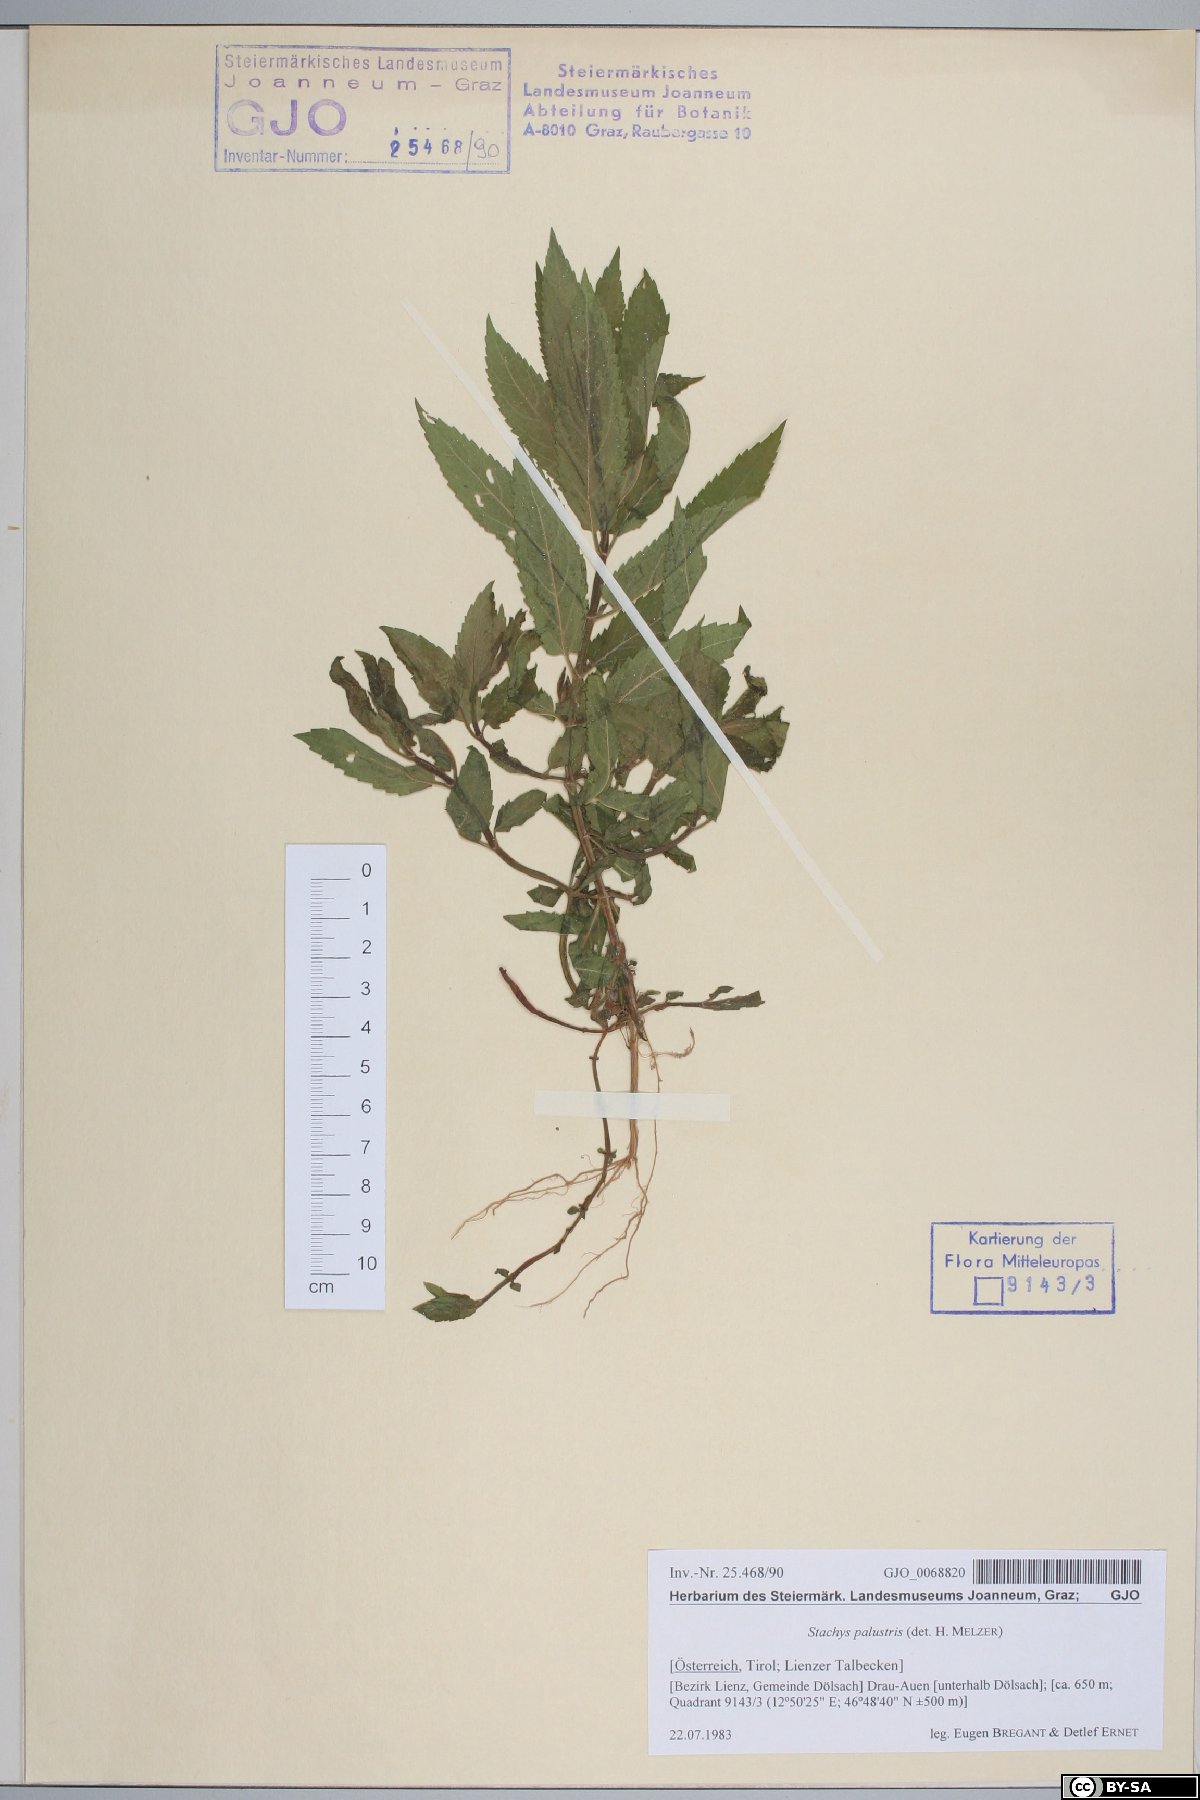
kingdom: Plantae
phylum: Tracheophyta
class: Magnoliopsida
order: Lamiales
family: Lamiaceae
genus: Stachys
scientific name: Stachys palustris
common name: Marsh woundwort
